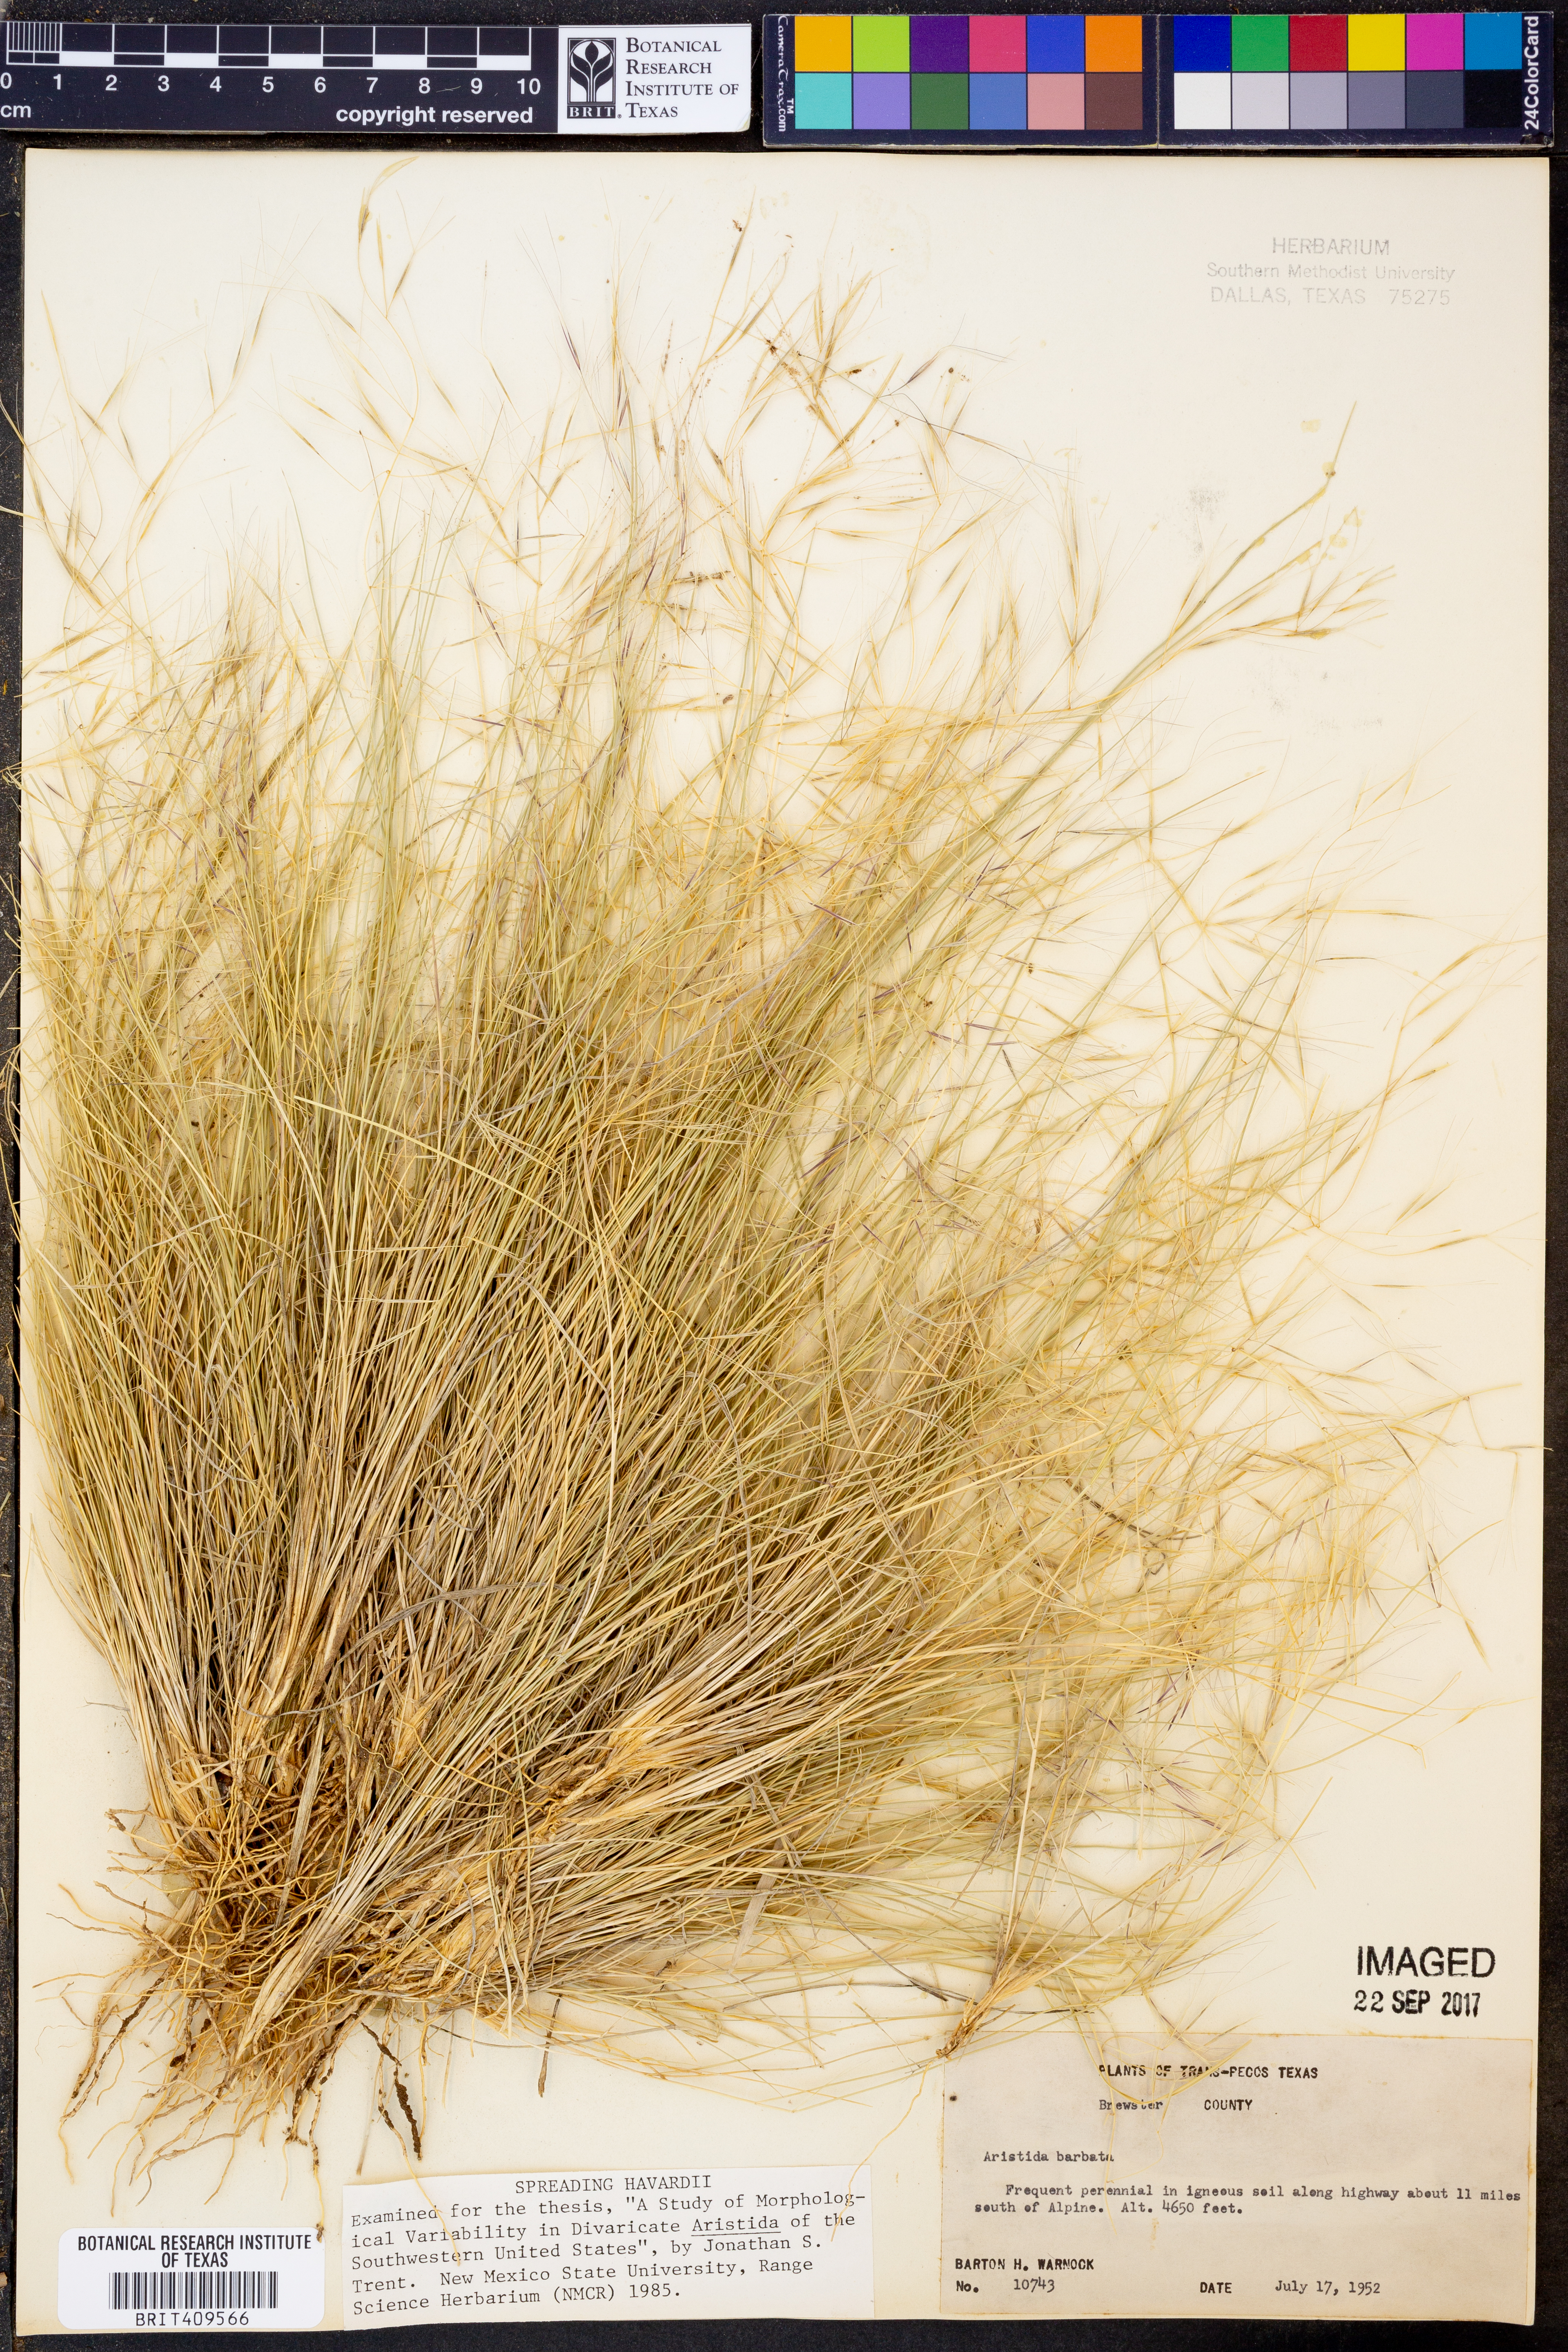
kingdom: Plantae
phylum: Tracheophyta
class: Liliopsida
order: Poales
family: Poaceae
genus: Aristida
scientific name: Aristida barbata
